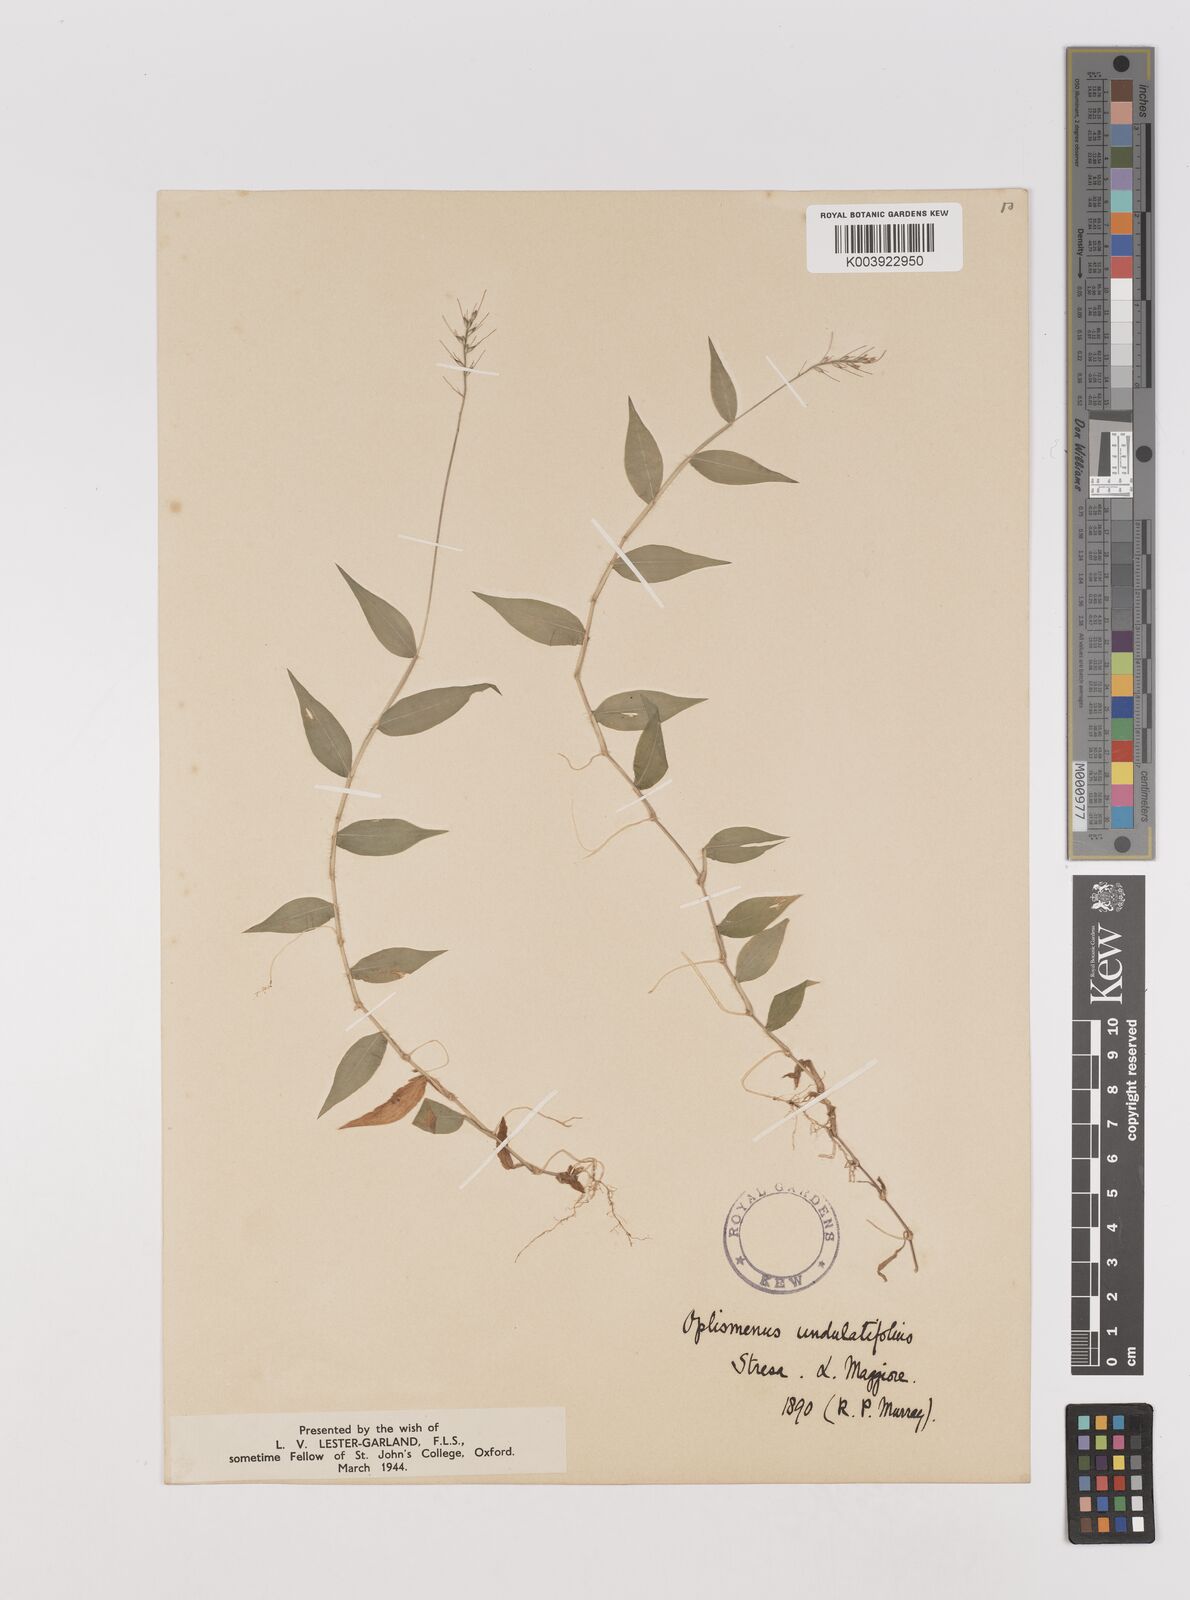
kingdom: Plantae
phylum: Tracheophyta
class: Liliopsida
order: Poales
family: Poaceae
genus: Oplismenus
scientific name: Oplismenus undulatifolius
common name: Wavyleaf basketgrass
